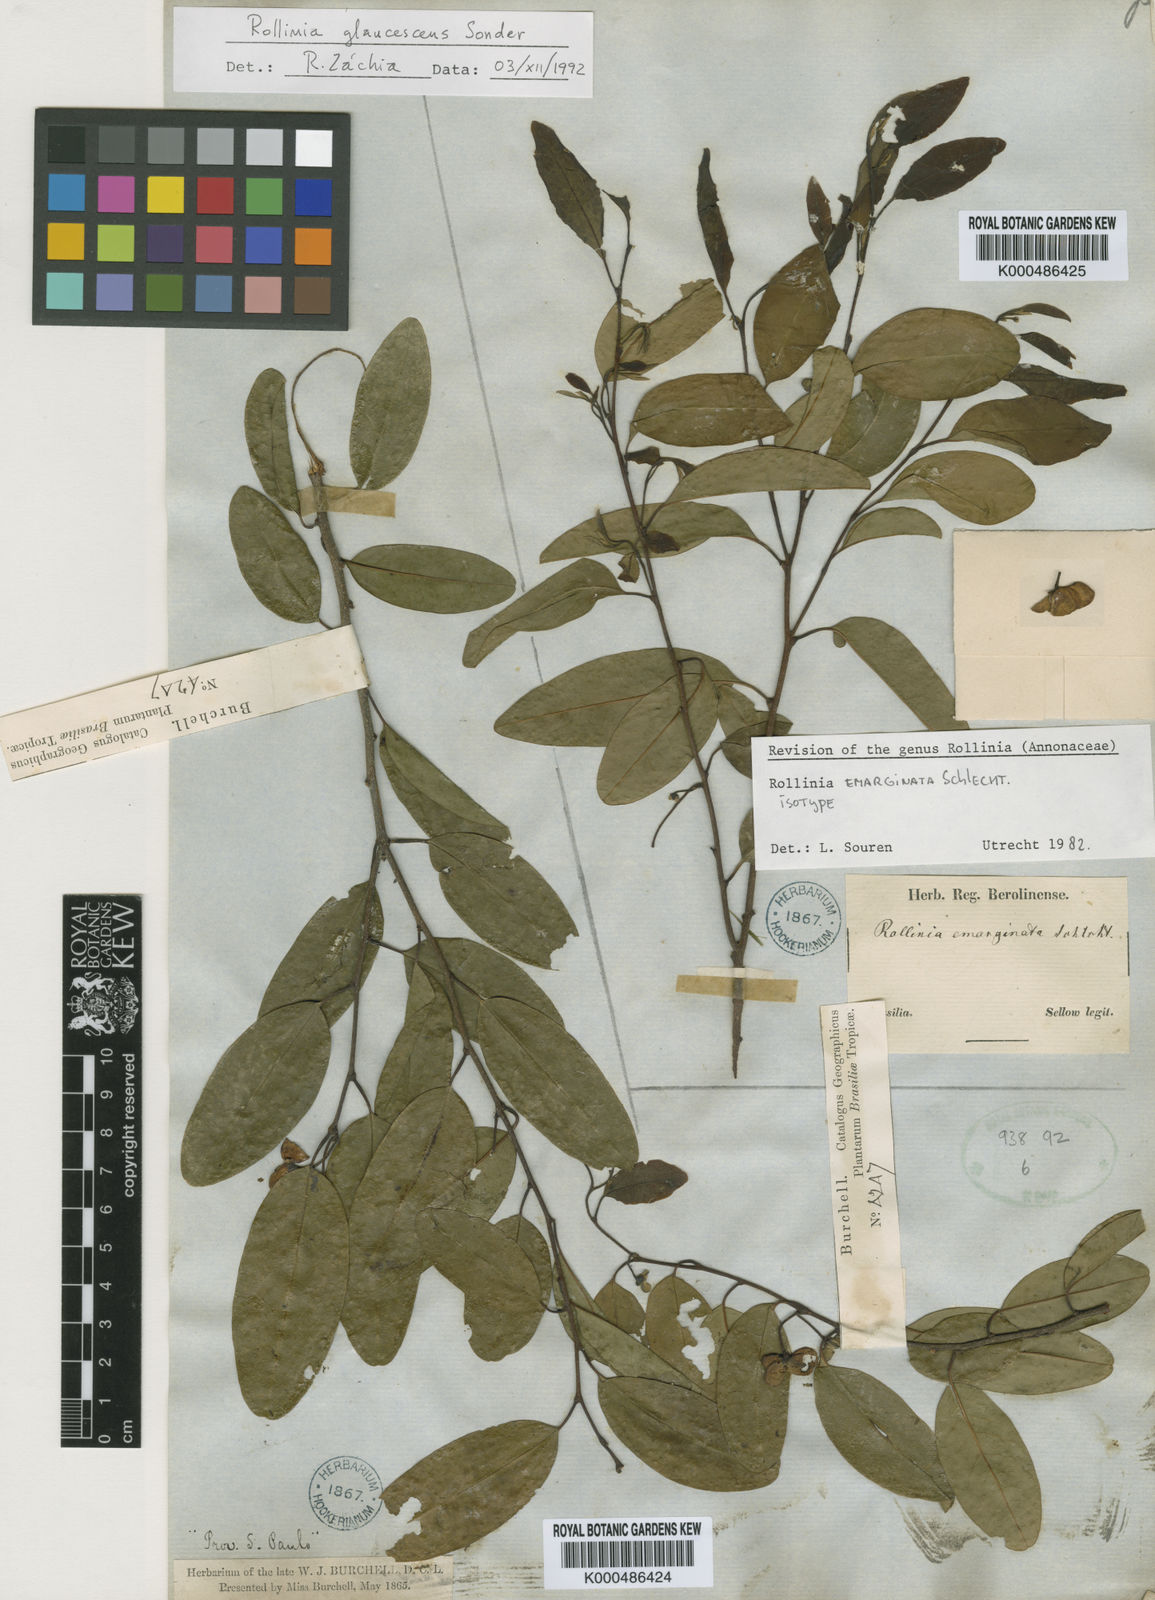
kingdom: Plantae
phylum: Tracheophyta
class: Magnoliopsida
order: Magnoliales
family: Annonaceae
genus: Annona
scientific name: Annona emarginata
